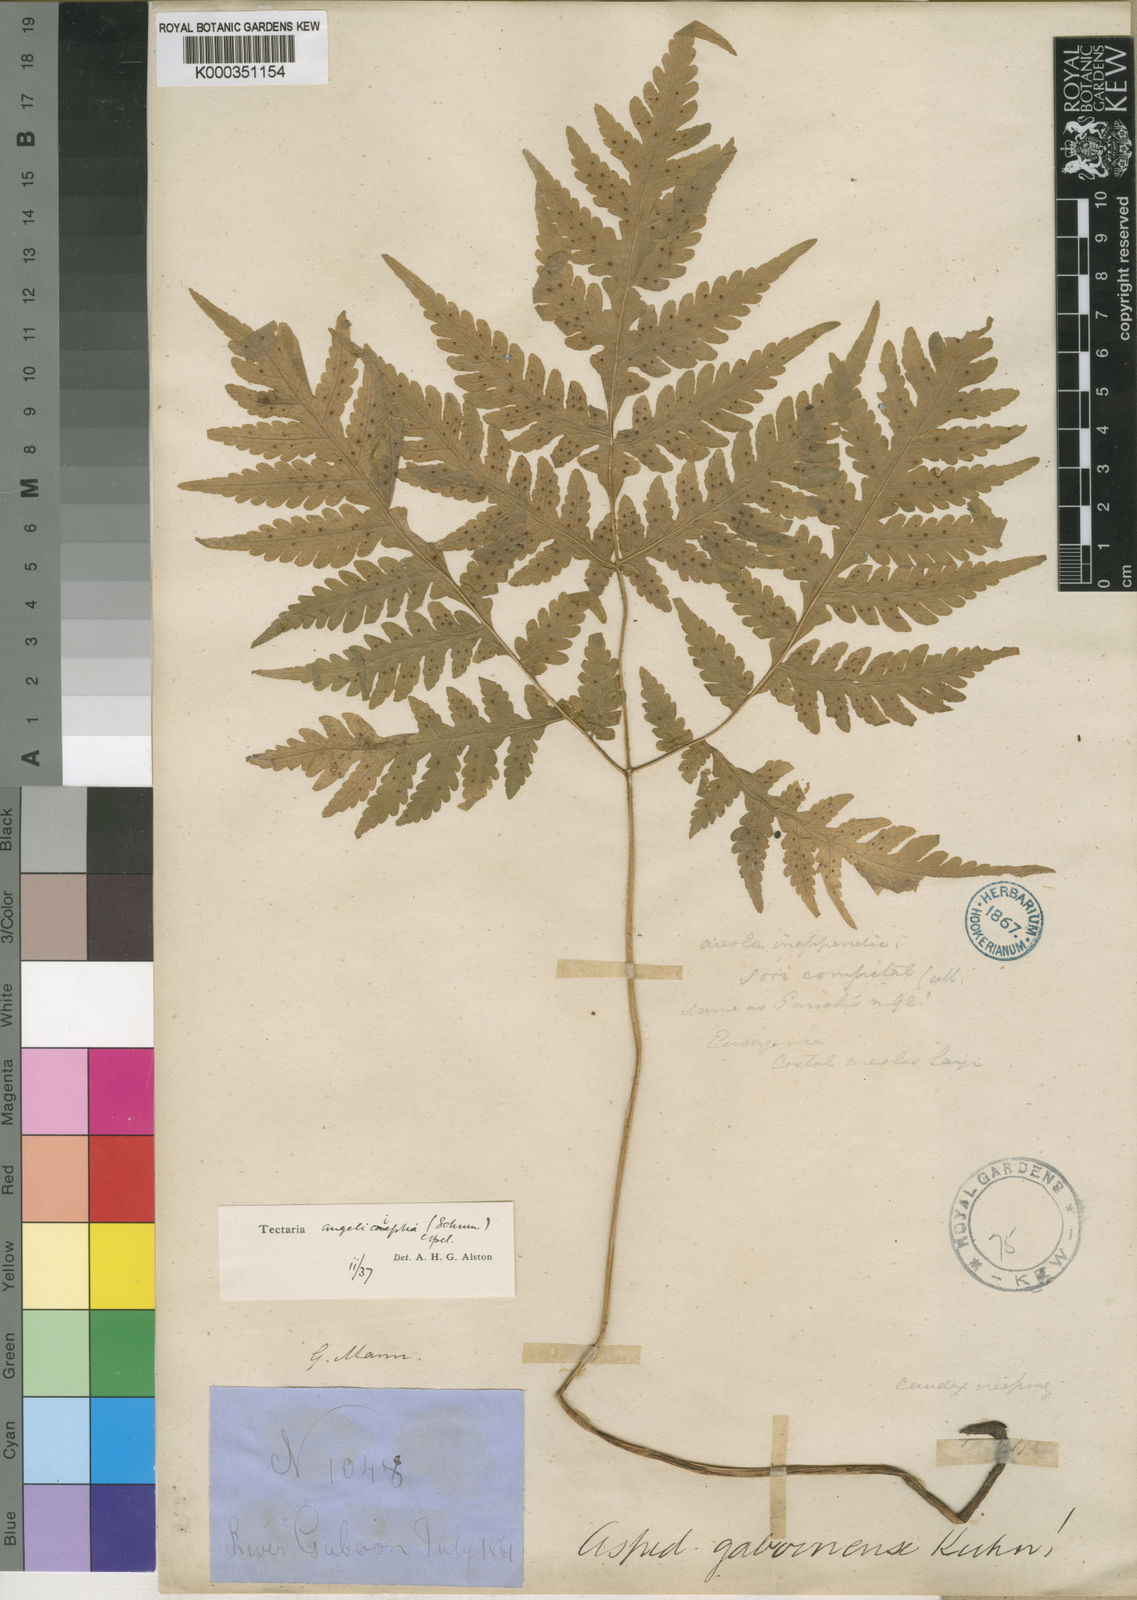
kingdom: Plantae
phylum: Tracheophyta
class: Polypodiopsida
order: Polypodiales
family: Tectariaceae
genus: Tectaria
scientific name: Tectaria angelicifolia
